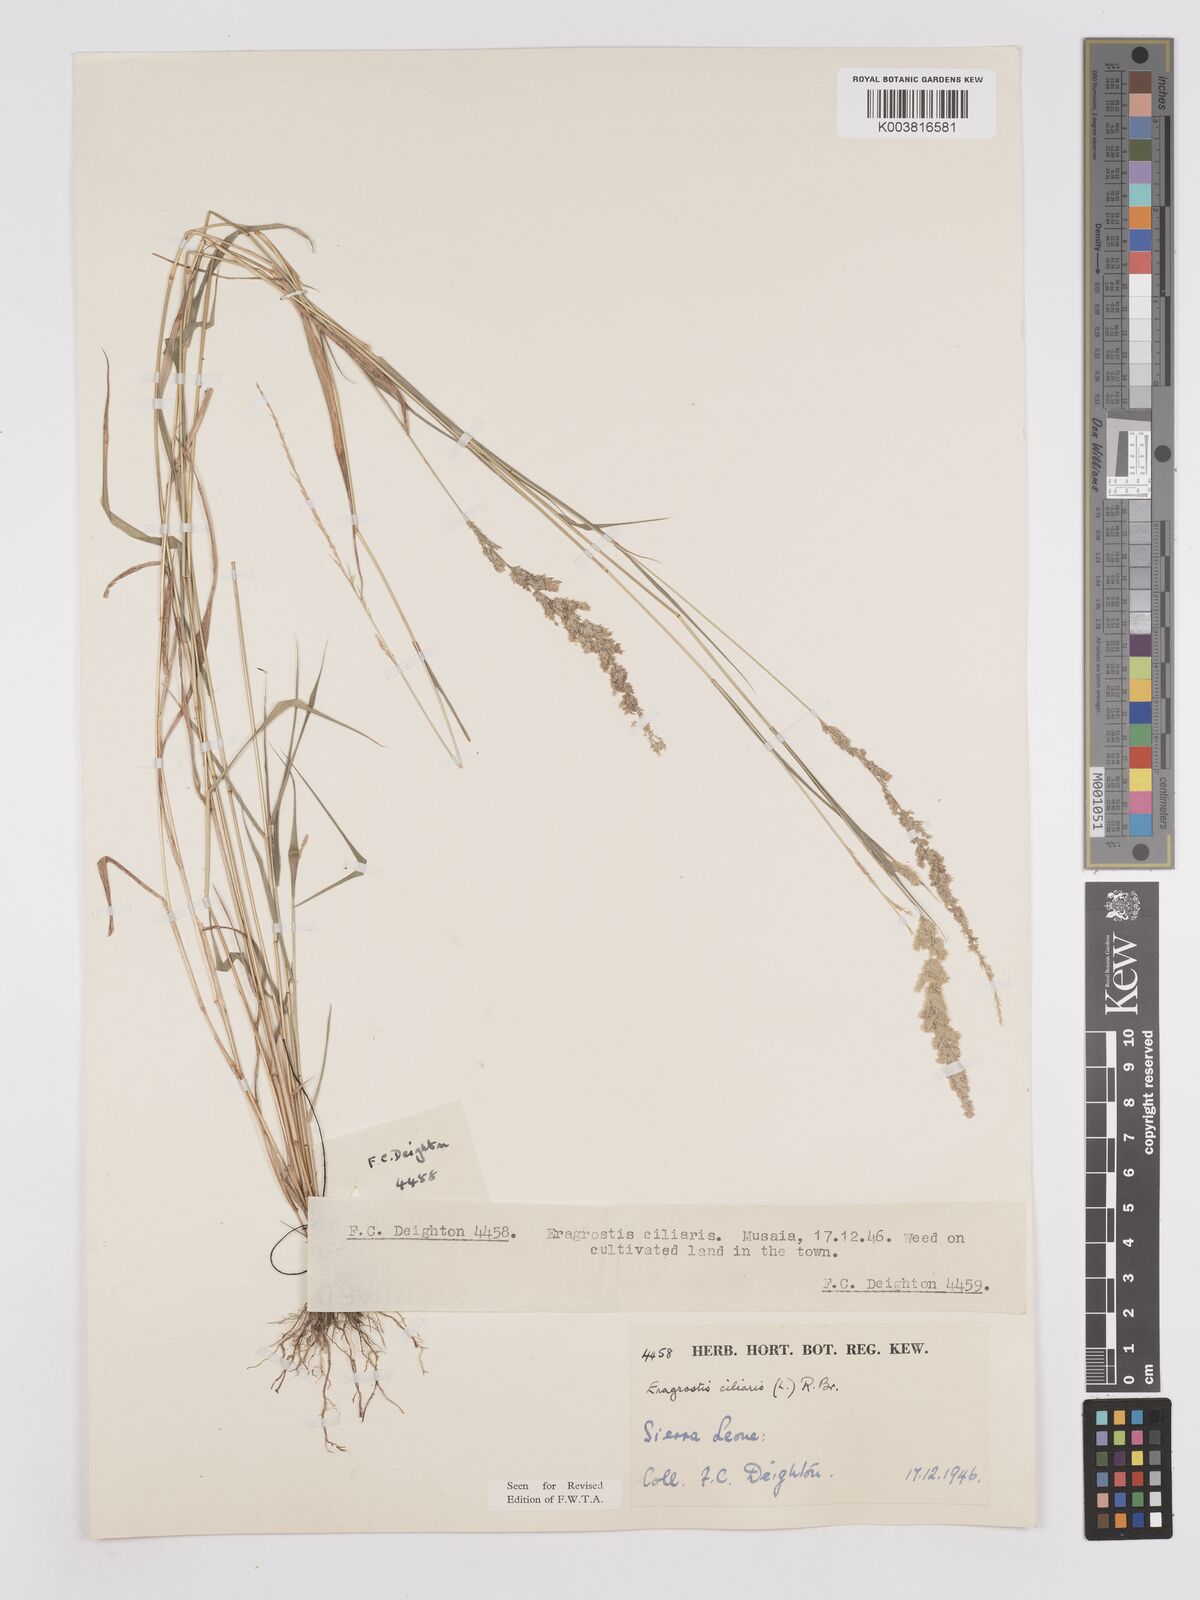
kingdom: Plantae
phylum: Tracheophyta
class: Liliopsida
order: Poales
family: Poaceae
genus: Eragrostis
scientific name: Eragrostis ciliaris
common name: Gophertail lovegrass
